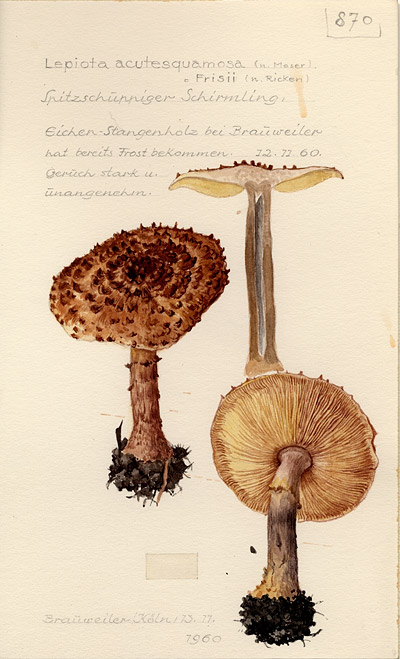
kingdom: Fungi
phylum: Basidiomycota
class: Agaricomycetes
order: Agaricales
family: Agaricaceae
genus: Echinoderma
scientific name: Echinoderma asperum
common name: Freckled dapperling
